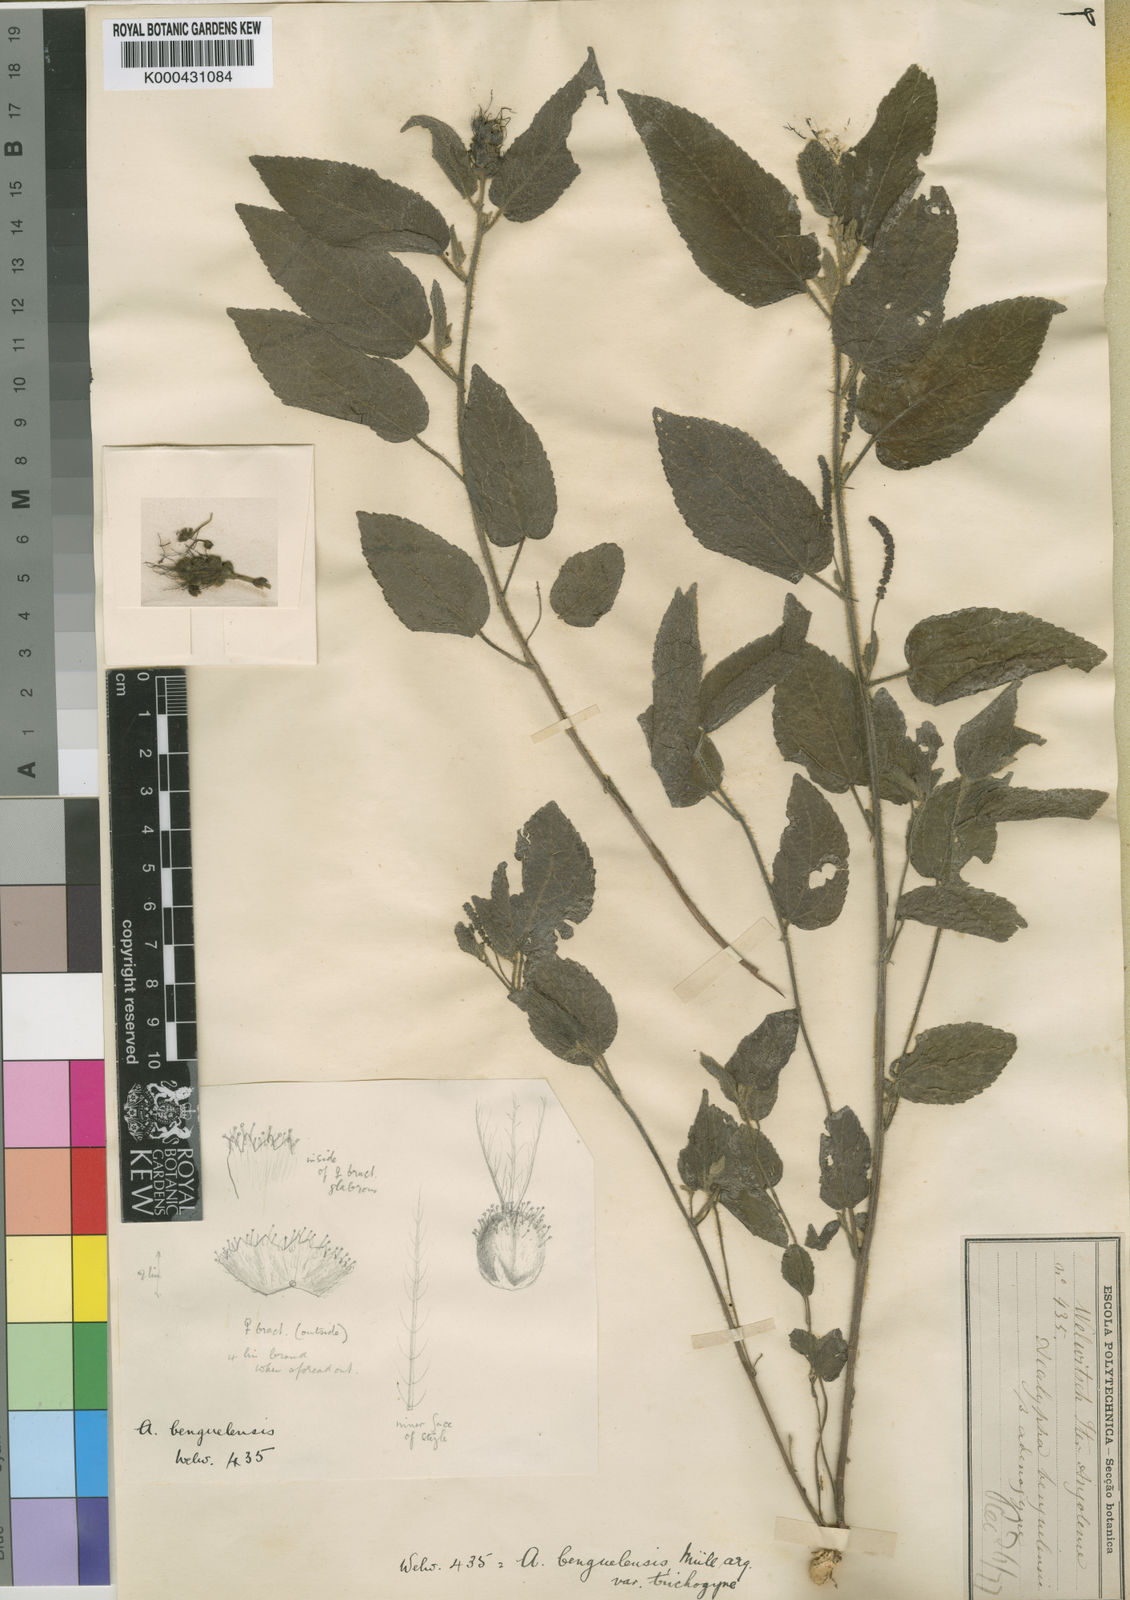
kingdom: Plantae
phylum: Tracheophyta
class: Magnoliopsida
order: Malpighiales
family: Euphorbiaceae
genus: Acalypha
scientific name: Acalypha
